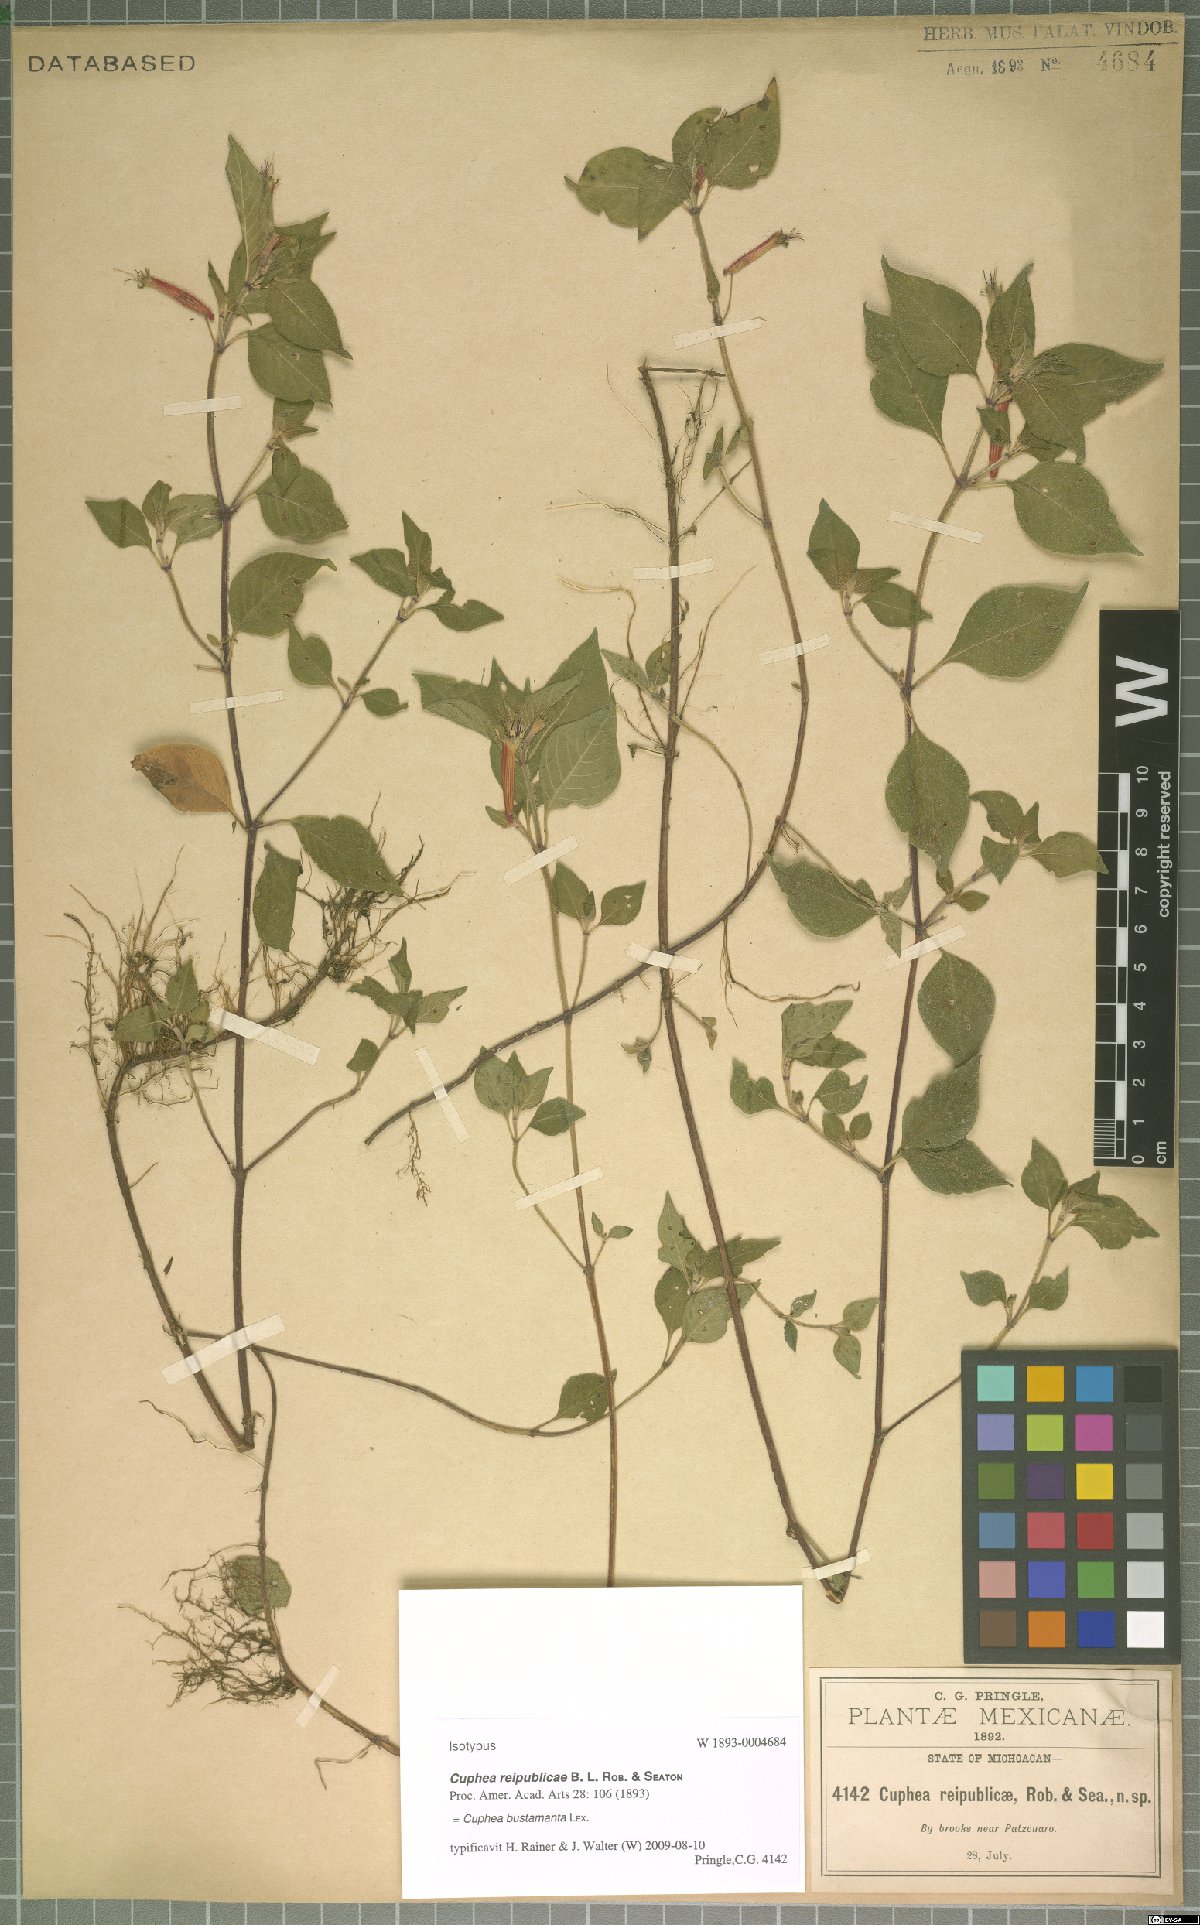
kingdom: Plantae
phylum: Tracheophyta
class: Magnoliopsida
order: Myrtales
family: Lythraceae
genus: Cuphea
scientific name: Cuphea bustamanta
